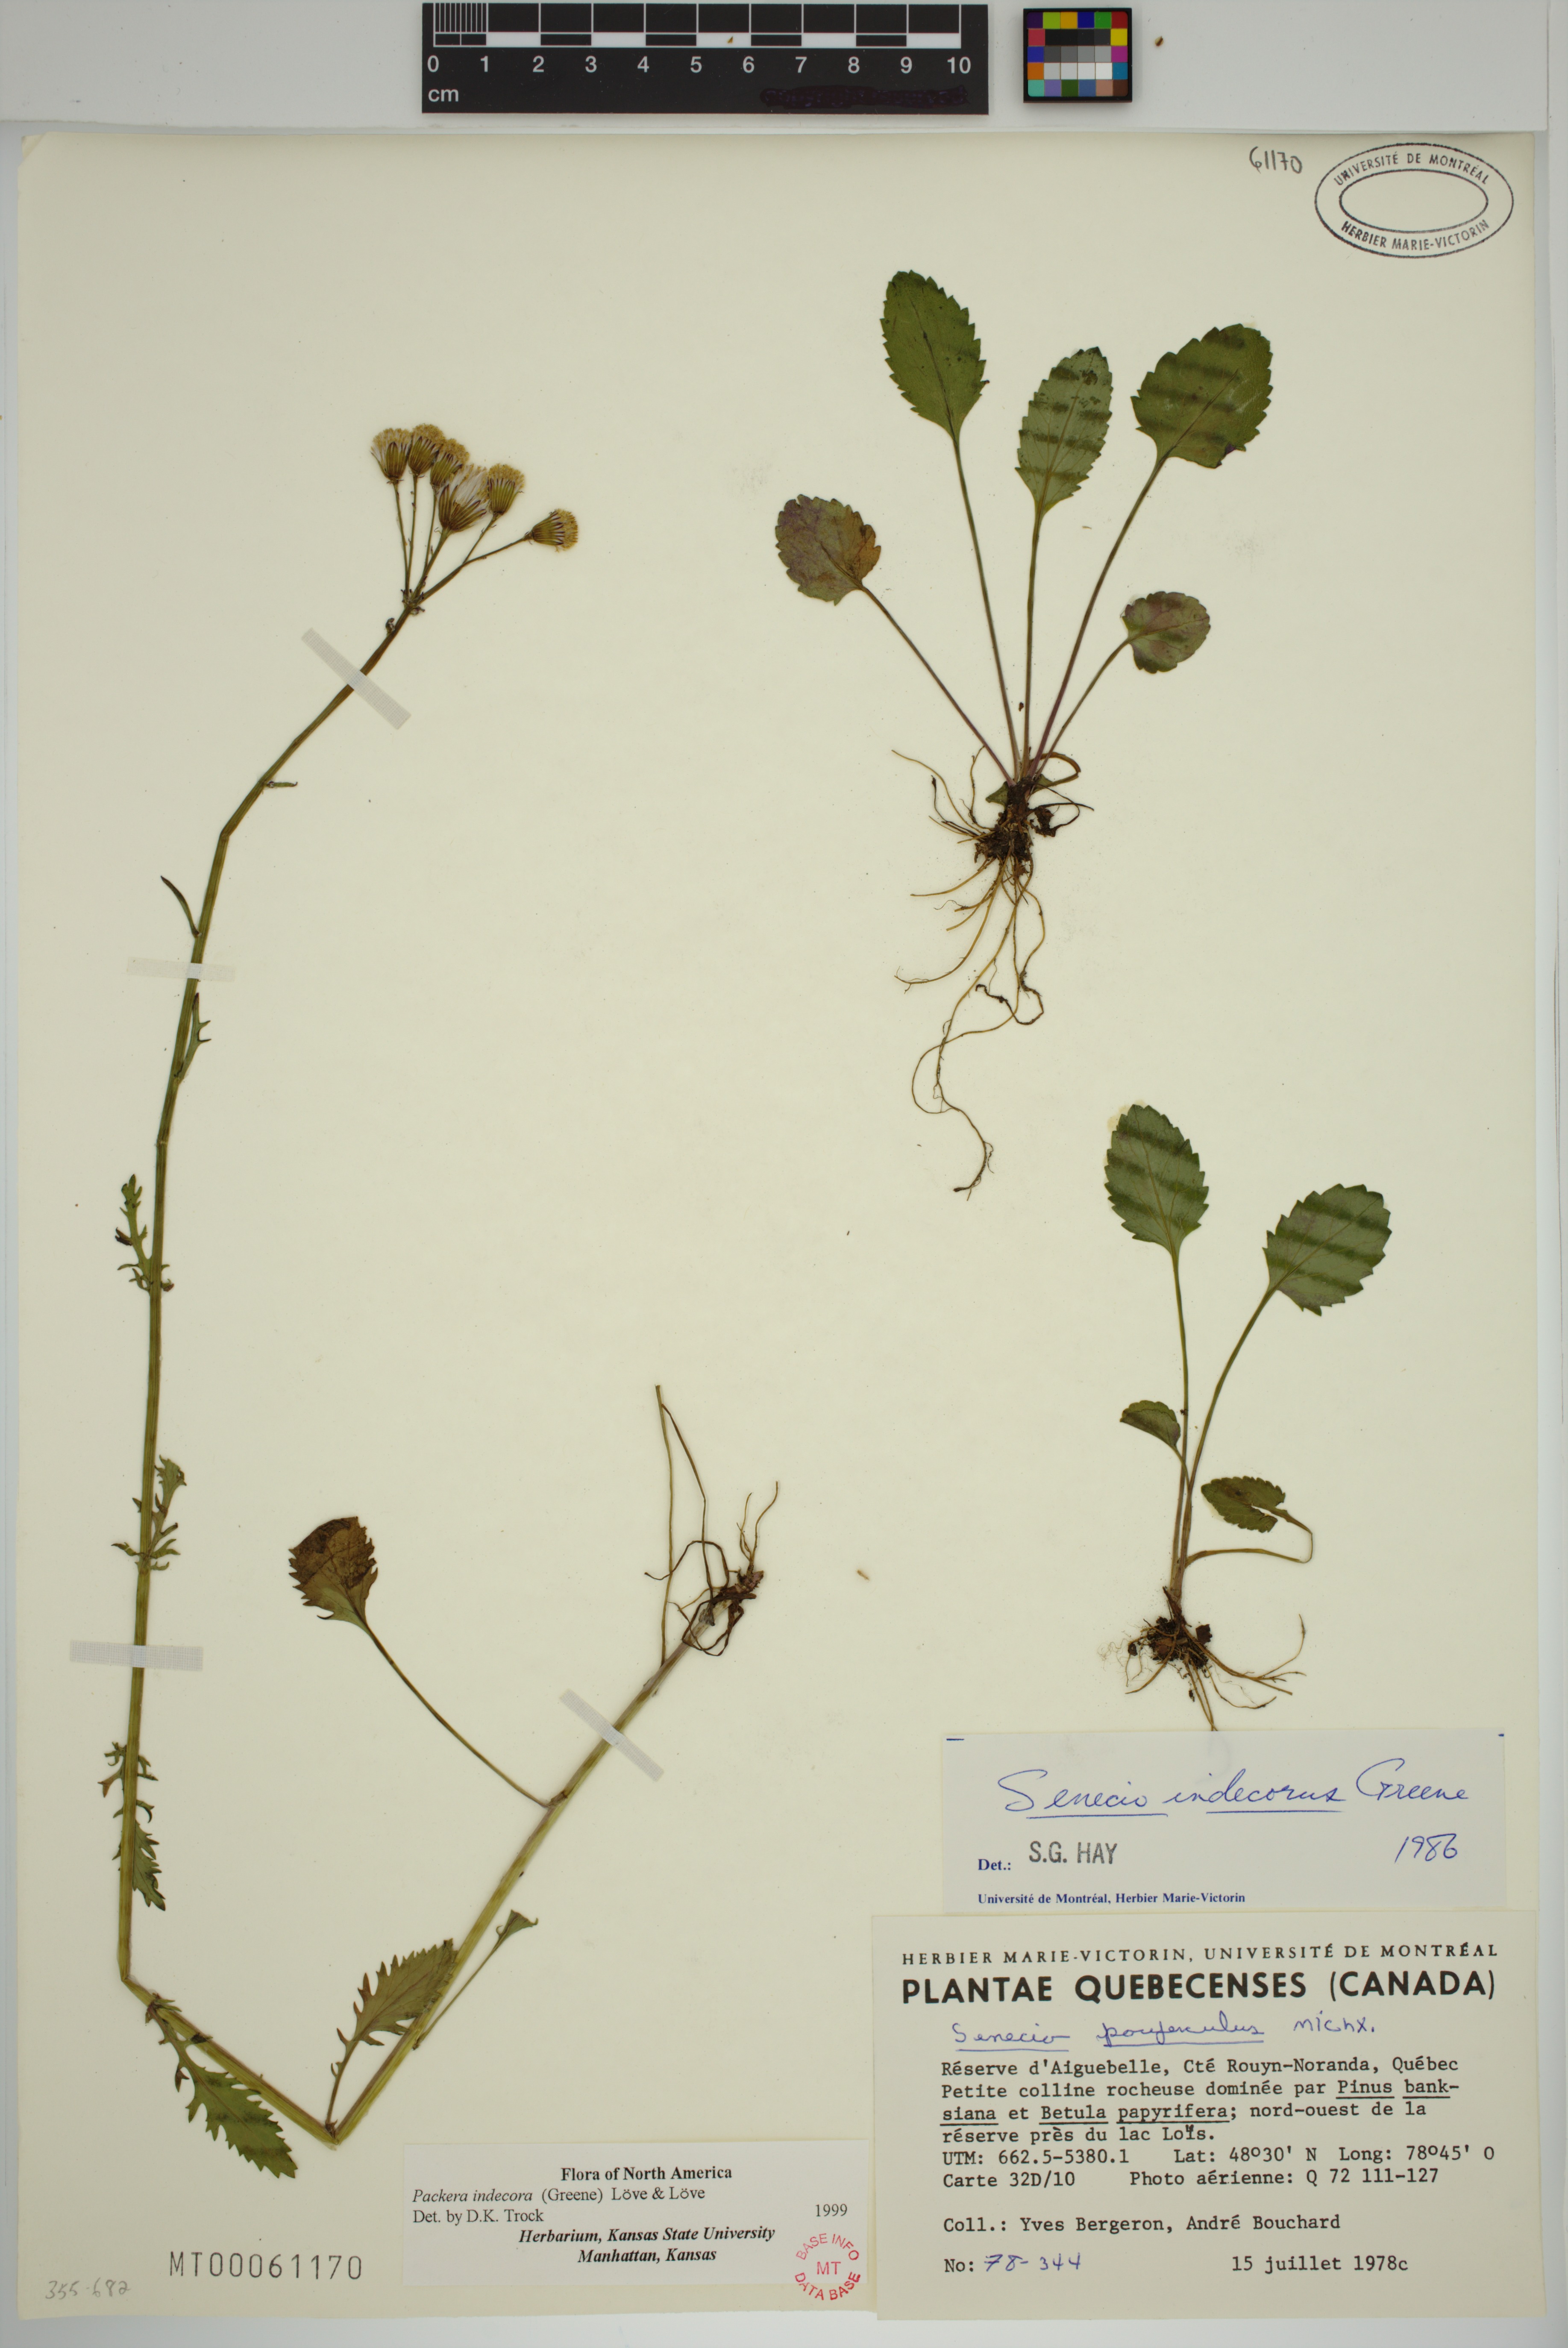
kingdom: Plantae
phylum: Tracheophyta
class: Magnoliopsida
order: Asterales
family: Asteraceae
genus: Packera
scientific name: Packera indecora
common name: Elegant groundsel
